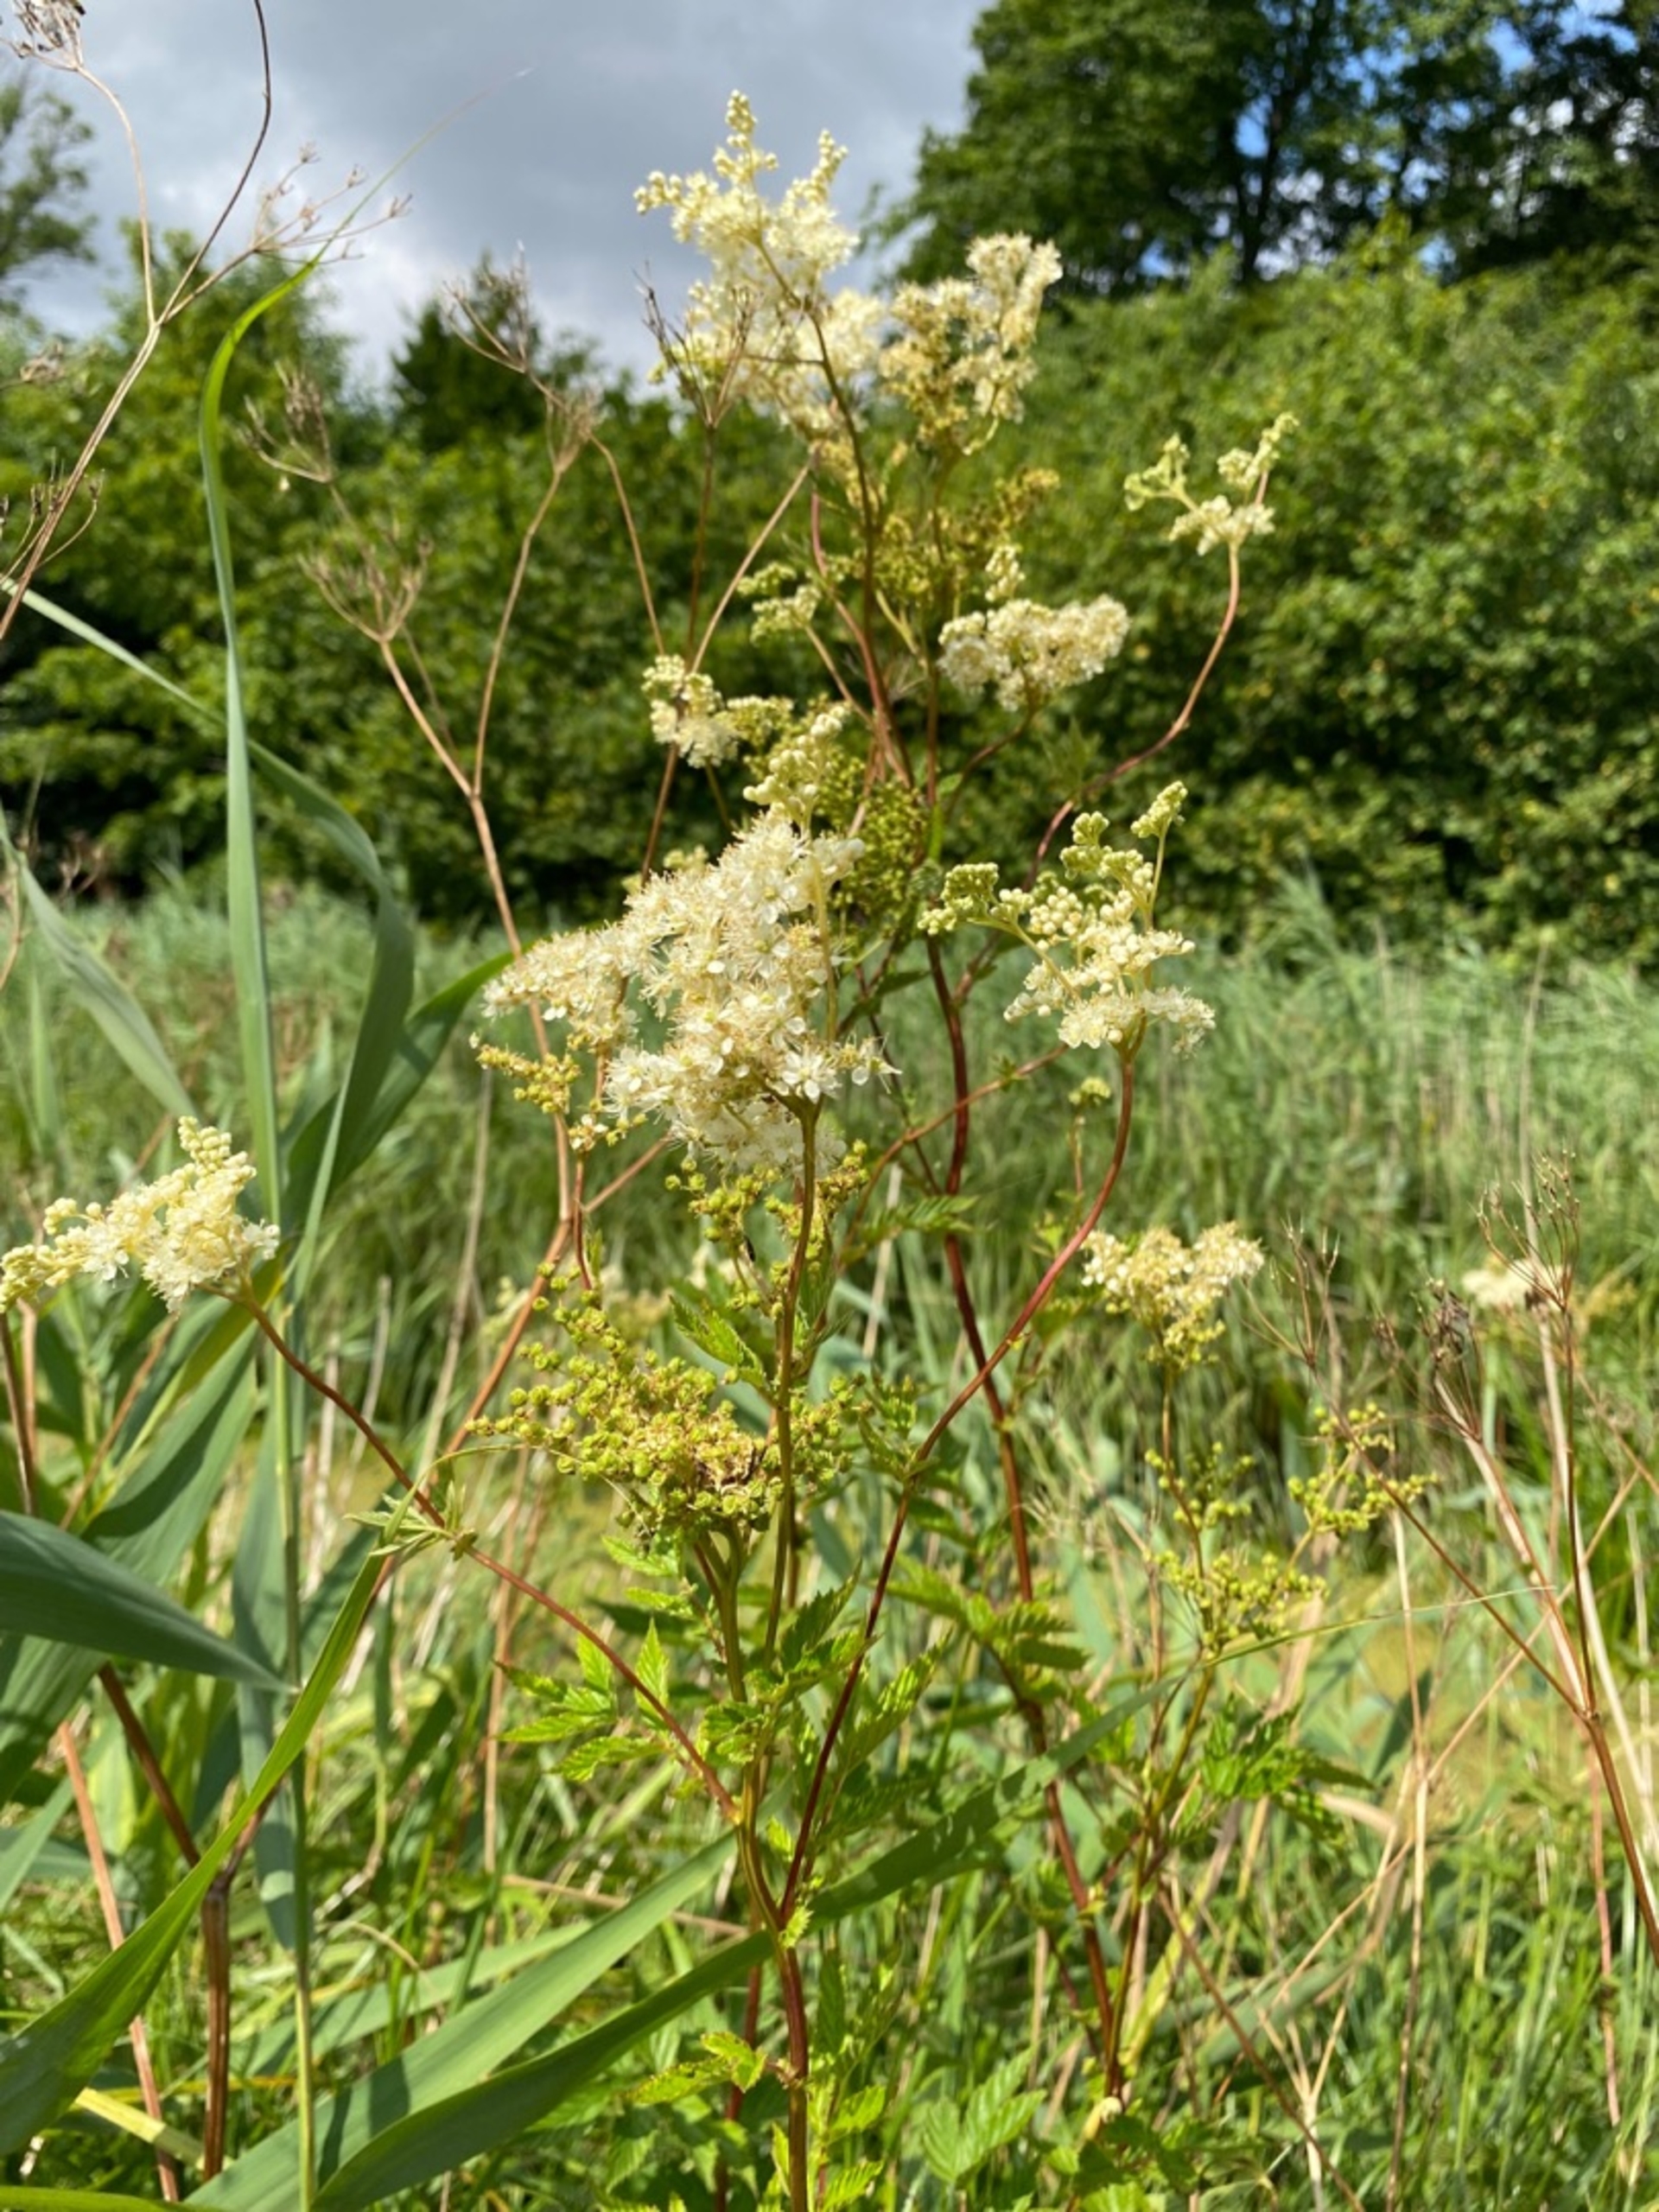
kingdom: Plantae
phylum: Tracheophyta
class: Magnoliopsida
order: Rosales
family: Rosaceae
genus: Filipendula
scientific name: Filipendula ulmaria
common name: Almindelig mjødurt
